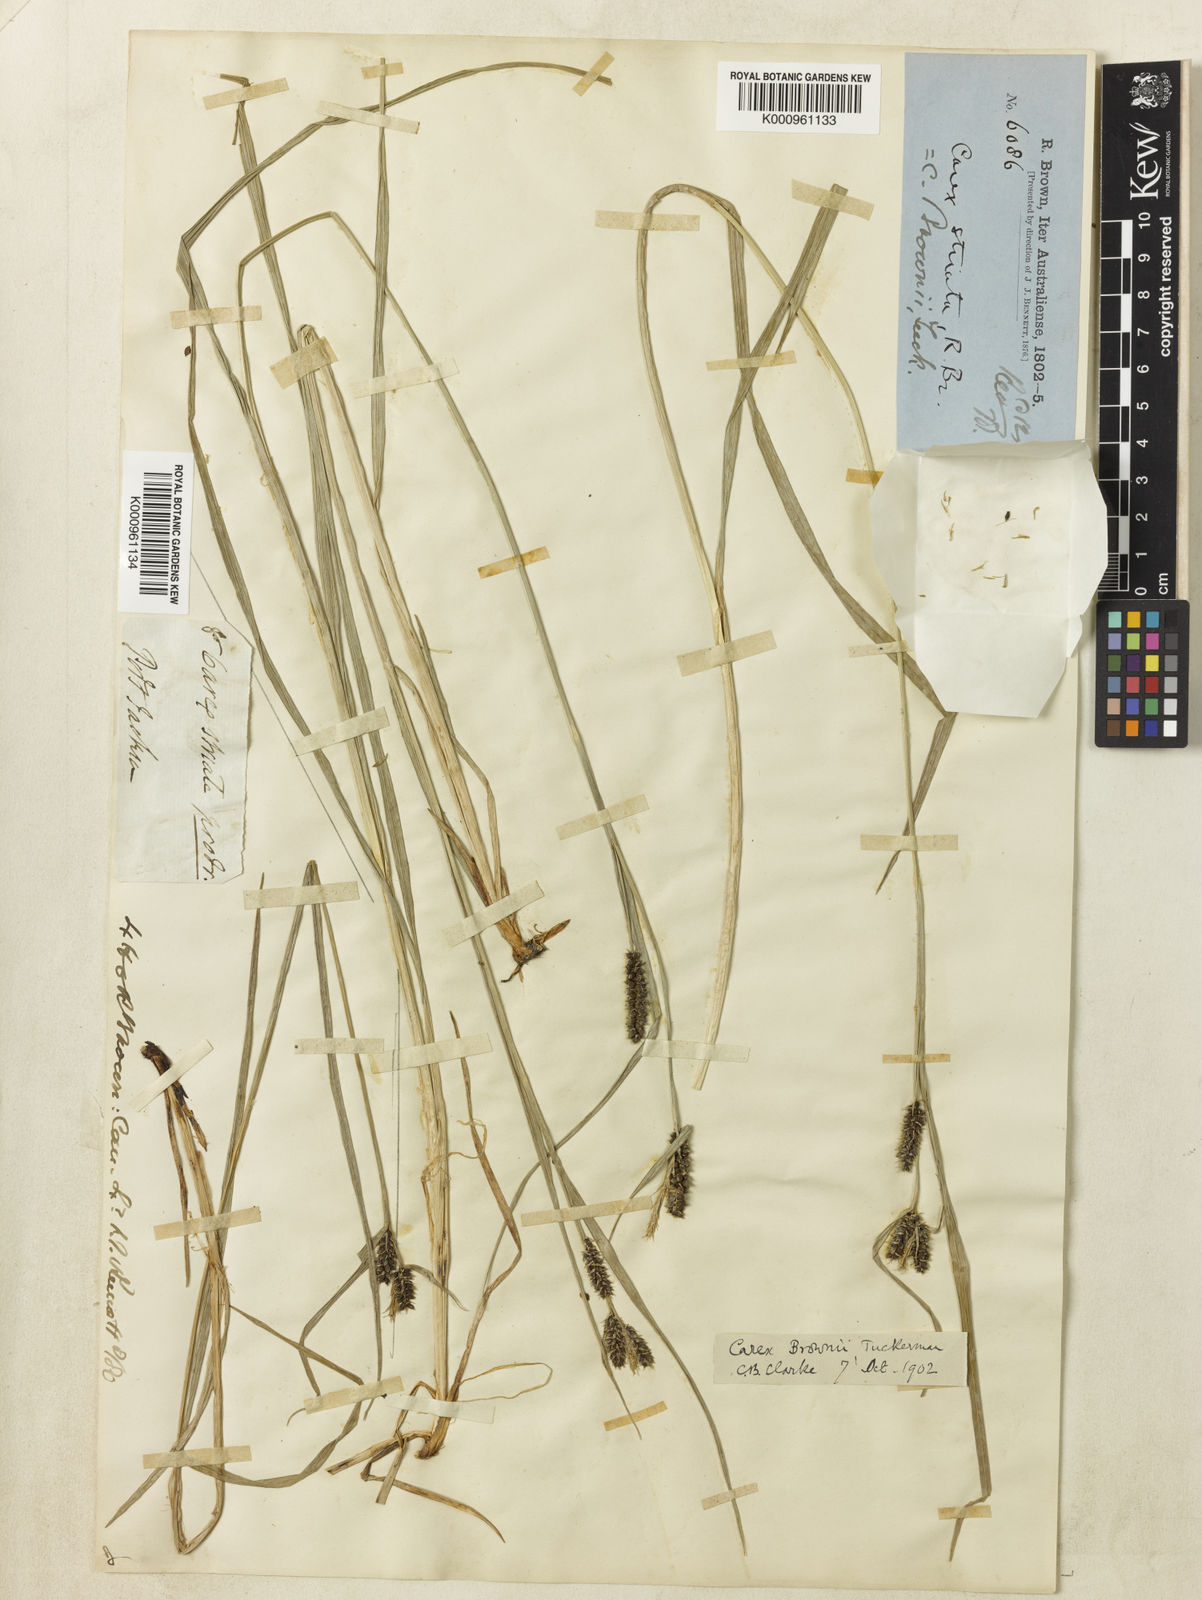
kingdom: Plantae
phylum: Tracheophyta
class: Liliopsida
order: Poales
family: Cyperaceae
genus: Carex
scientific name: Carex brownii
